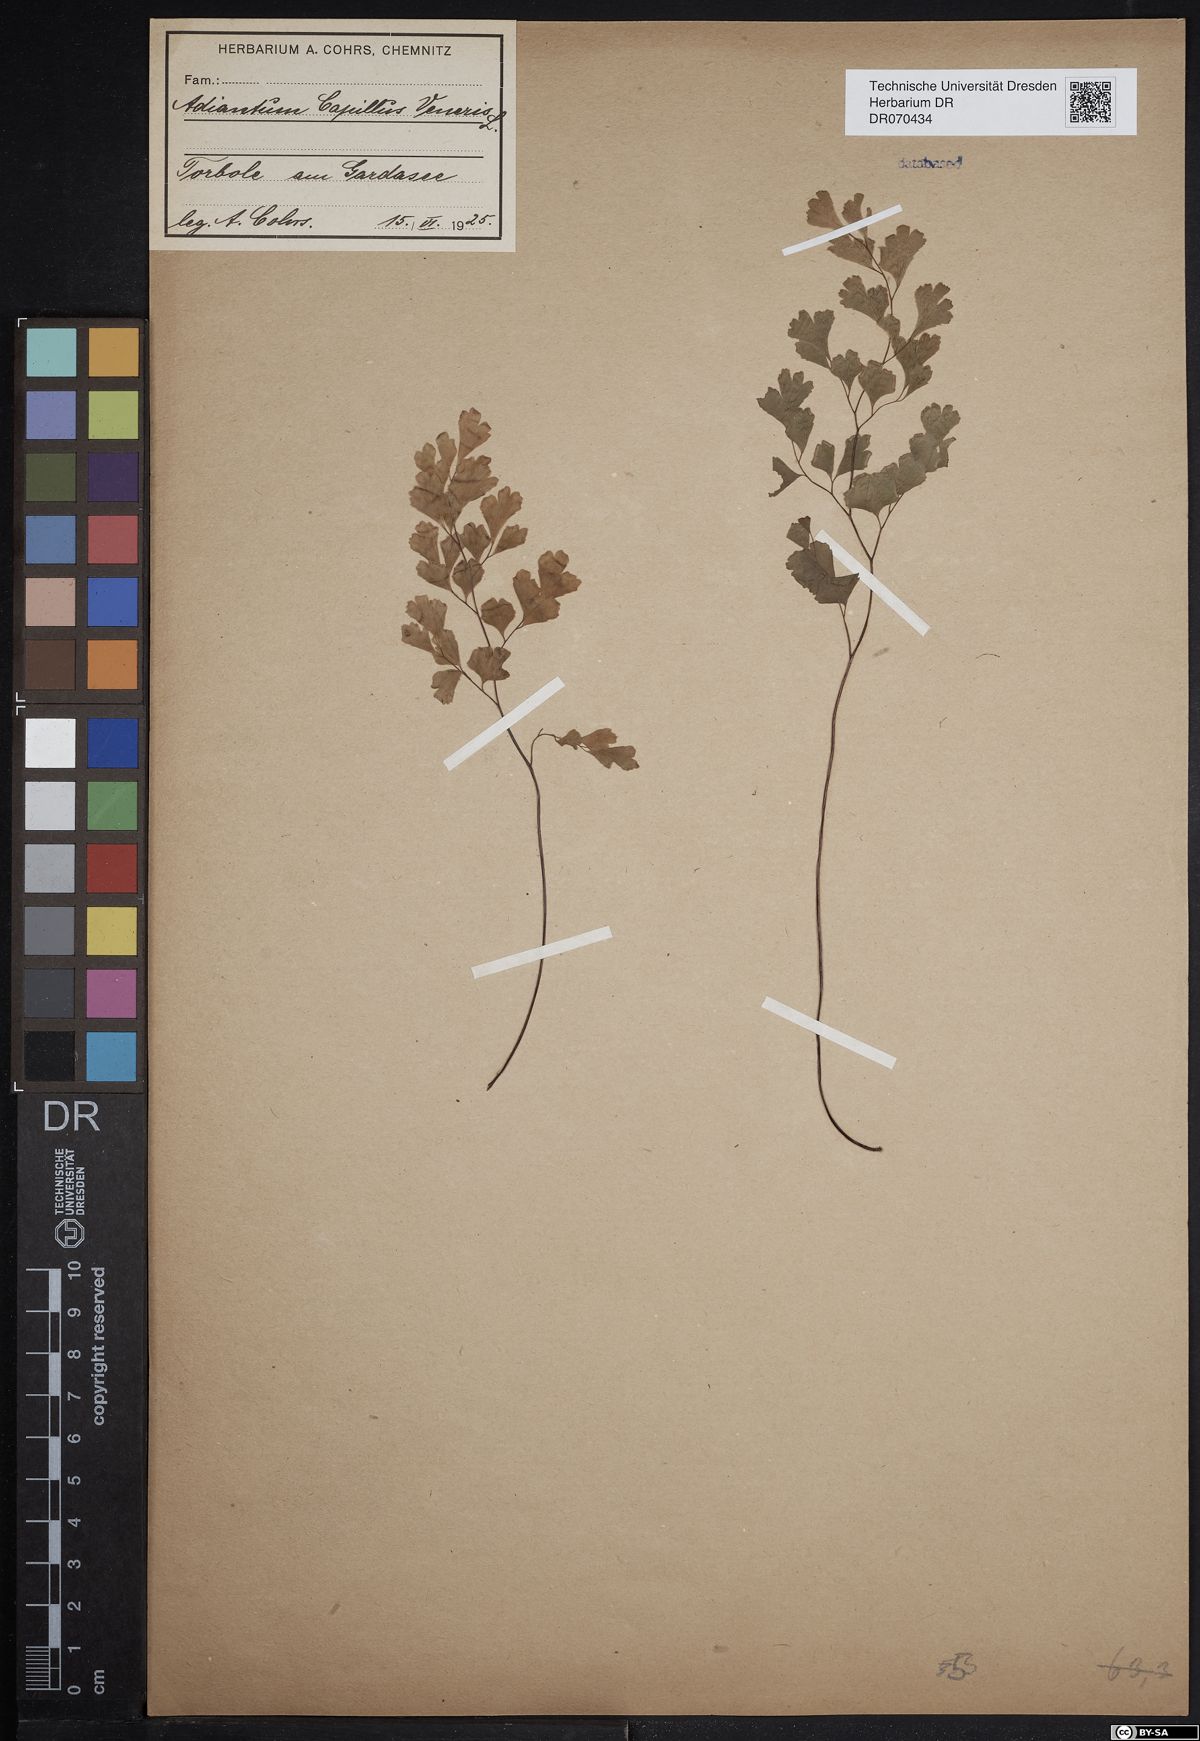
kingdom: Plantae
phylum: Tracheophyta
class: Polypodiopsida
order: Polypodiales
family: Pteridaceae
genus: Adiantum
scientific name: Adiantum capillus-veneris
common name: Maidenhair fern
